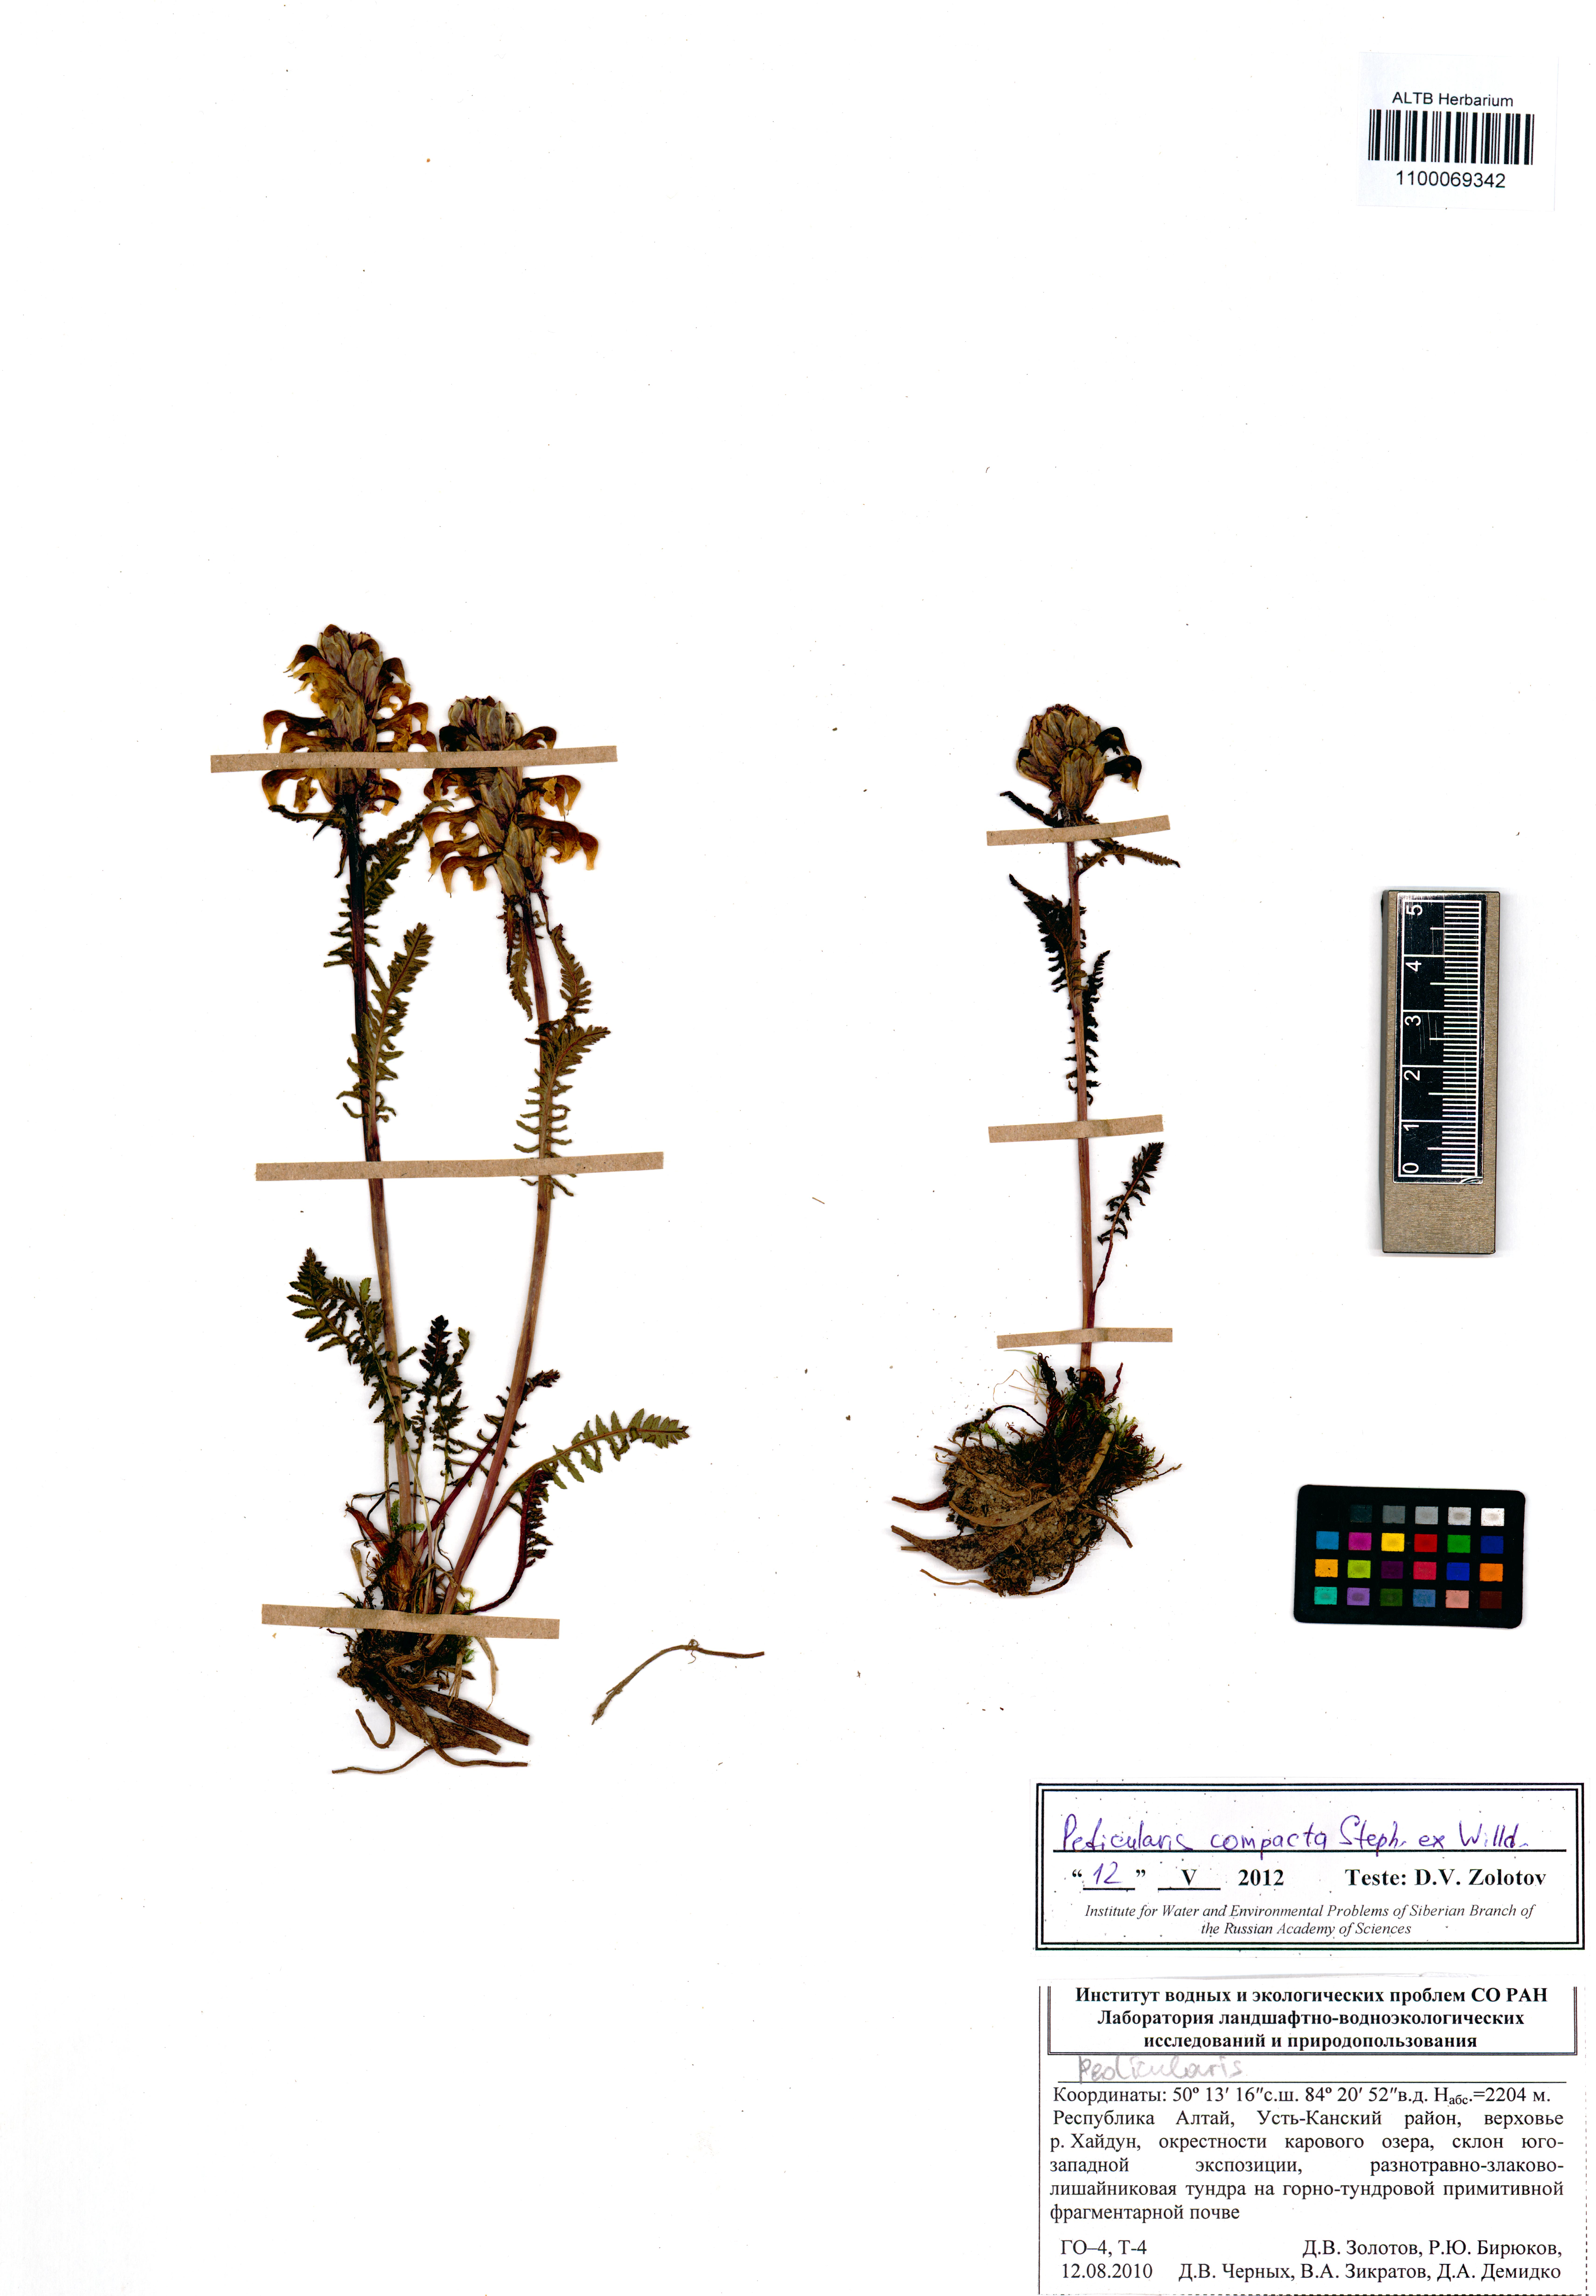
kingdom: Plantae
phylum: Tracheophyta
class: Magnoliopsida
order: Lamiales
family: Orobanchaceae
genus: Pedicularis
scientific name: Pedicularis compacta
